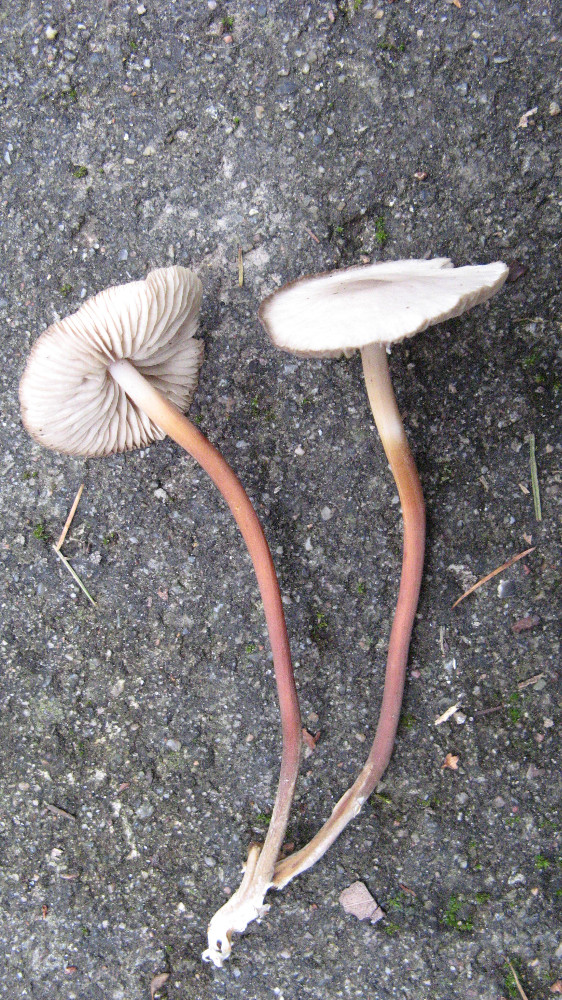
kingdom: Fungi
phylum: Basidiomycota
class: Agaricomycetes
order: Agaricales
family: Marasmiaceae
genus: Marasmius
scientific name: Marasmius wynneae
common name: hvælvet bruskhat
